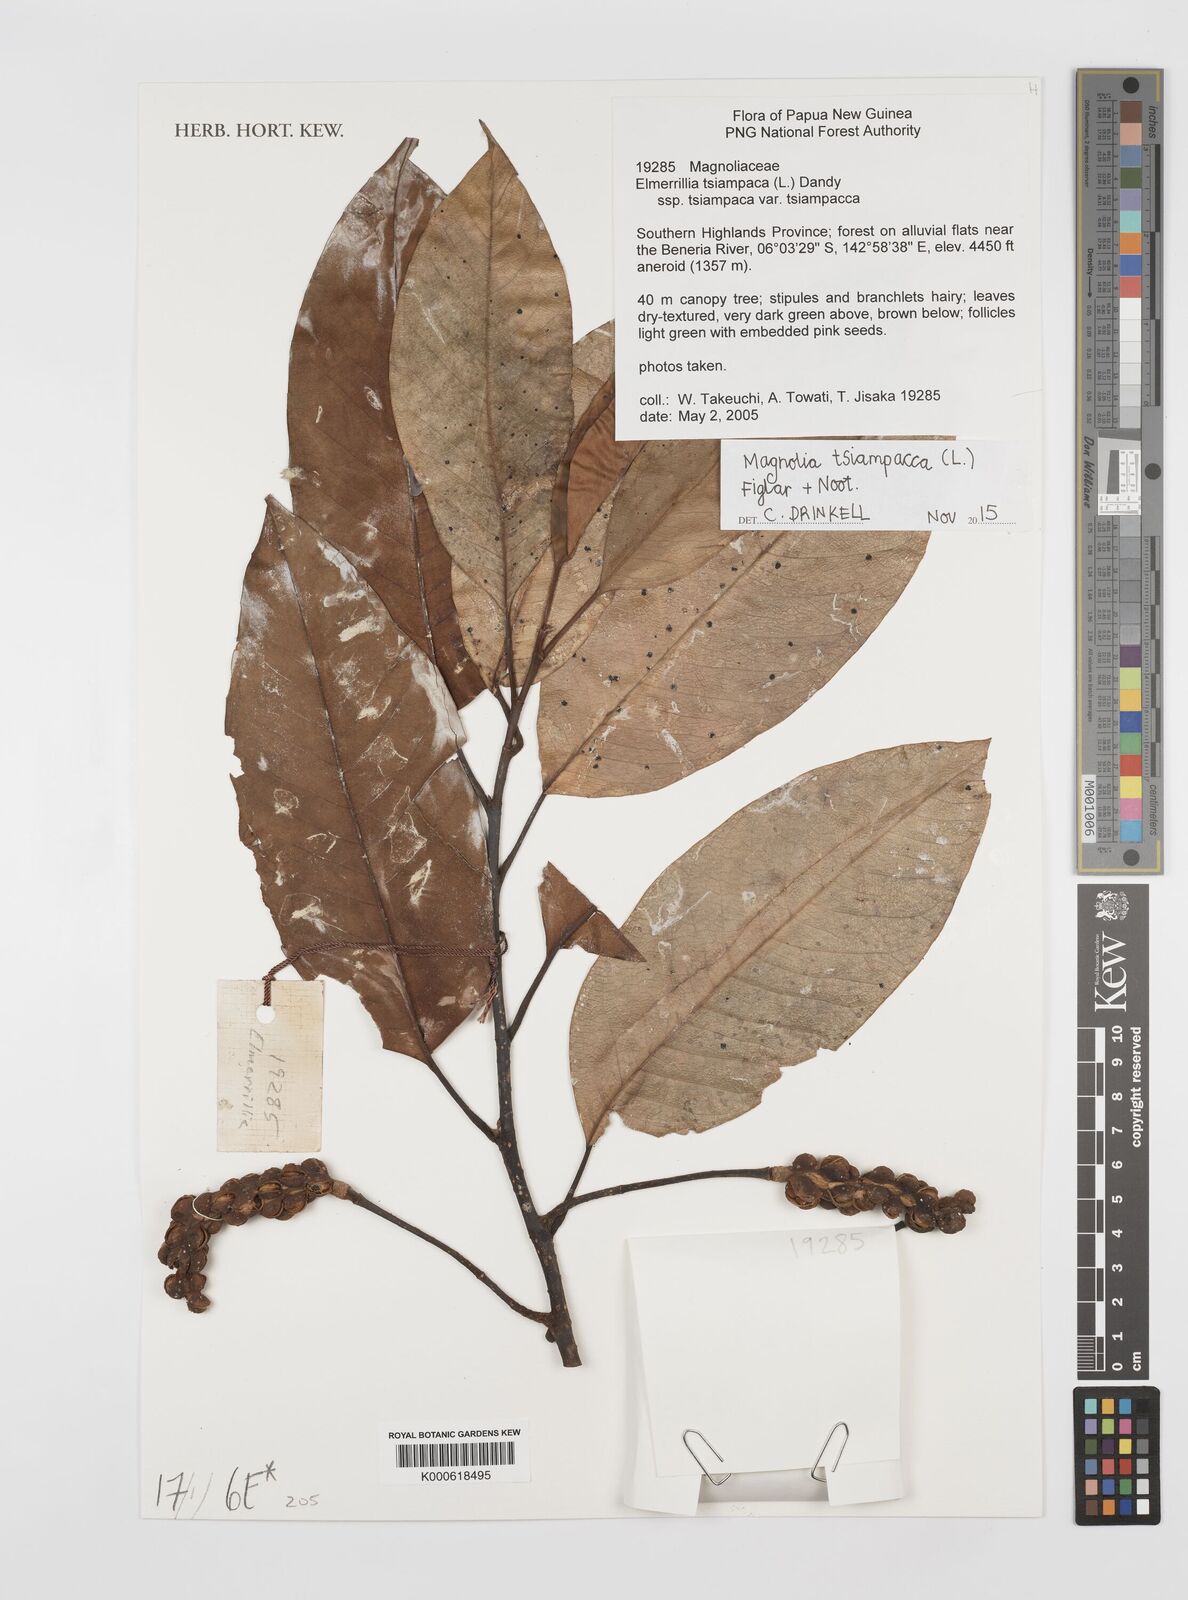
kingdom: Plantae
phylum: Tracheophyta
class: Magnoliopsida
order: Magnoliales
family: Magnoliaceae
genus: Magnolia
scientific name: Magnolia tsiampacca
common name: Wau-beech
